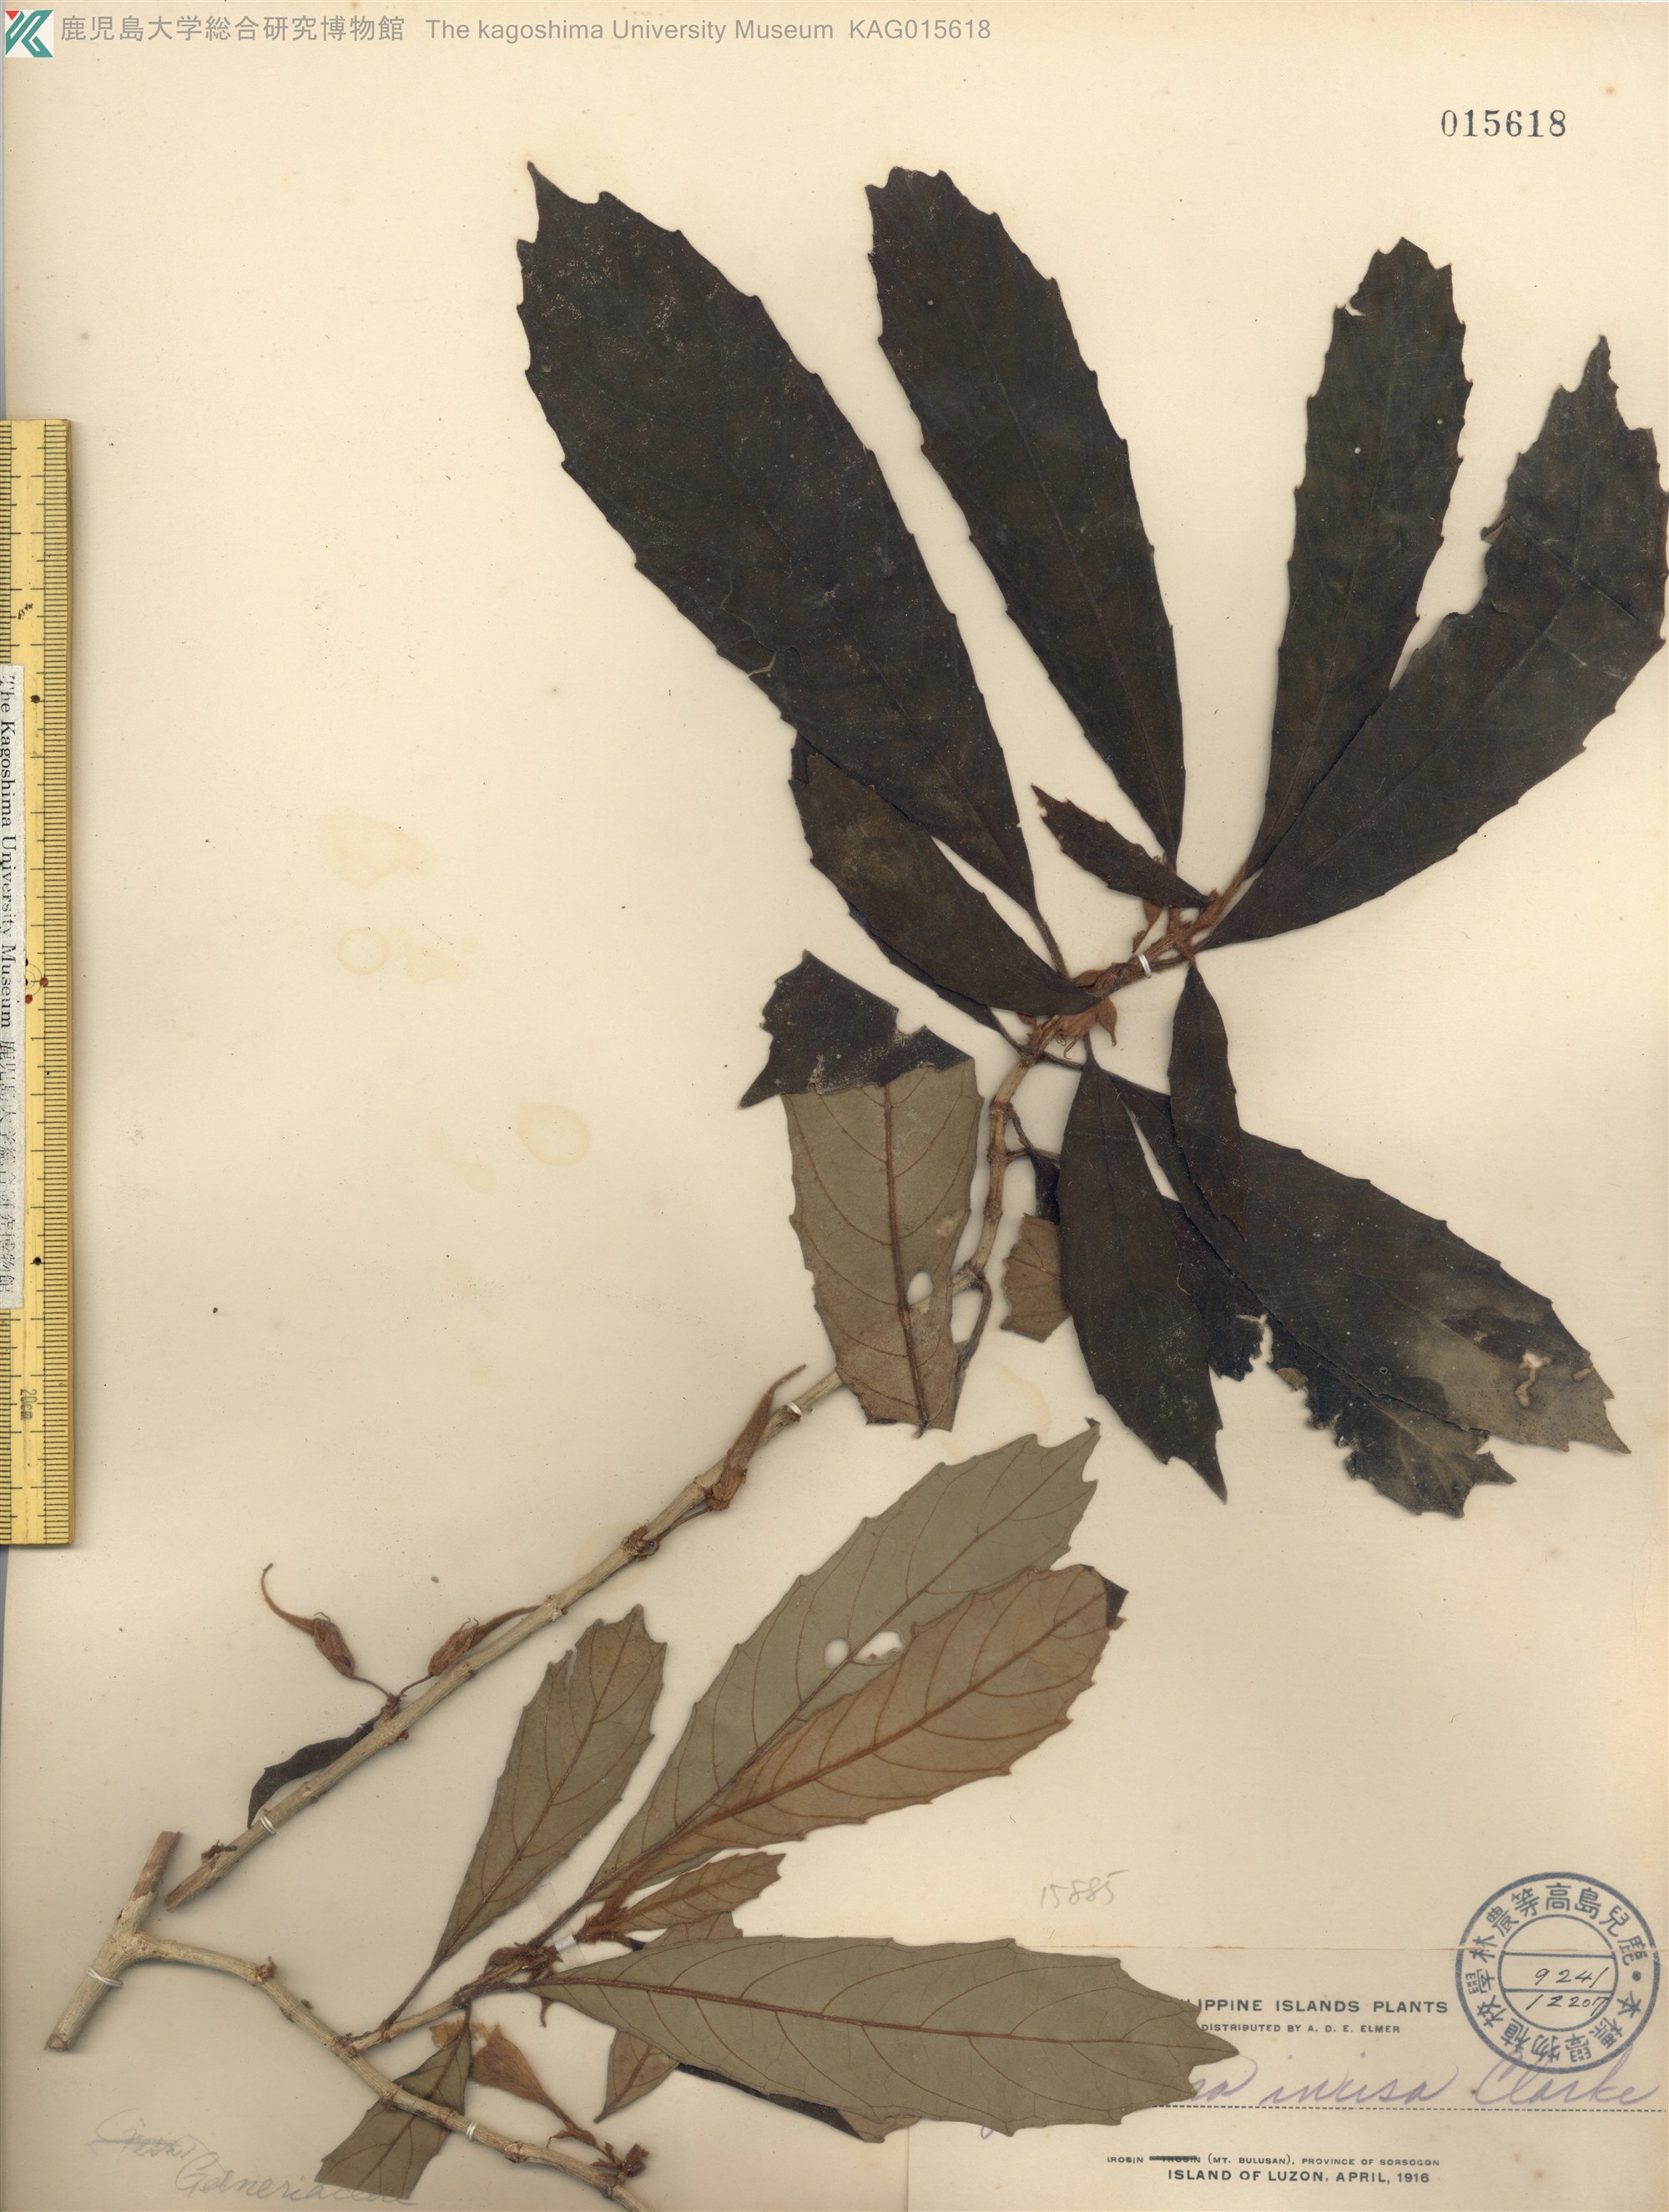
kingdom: Plantae
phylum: Tracheophyta
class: Magnoliopsida
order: Lamiales
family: Gesneriaceae
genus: Cyrtandra
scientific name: Cyrtandra incisa
